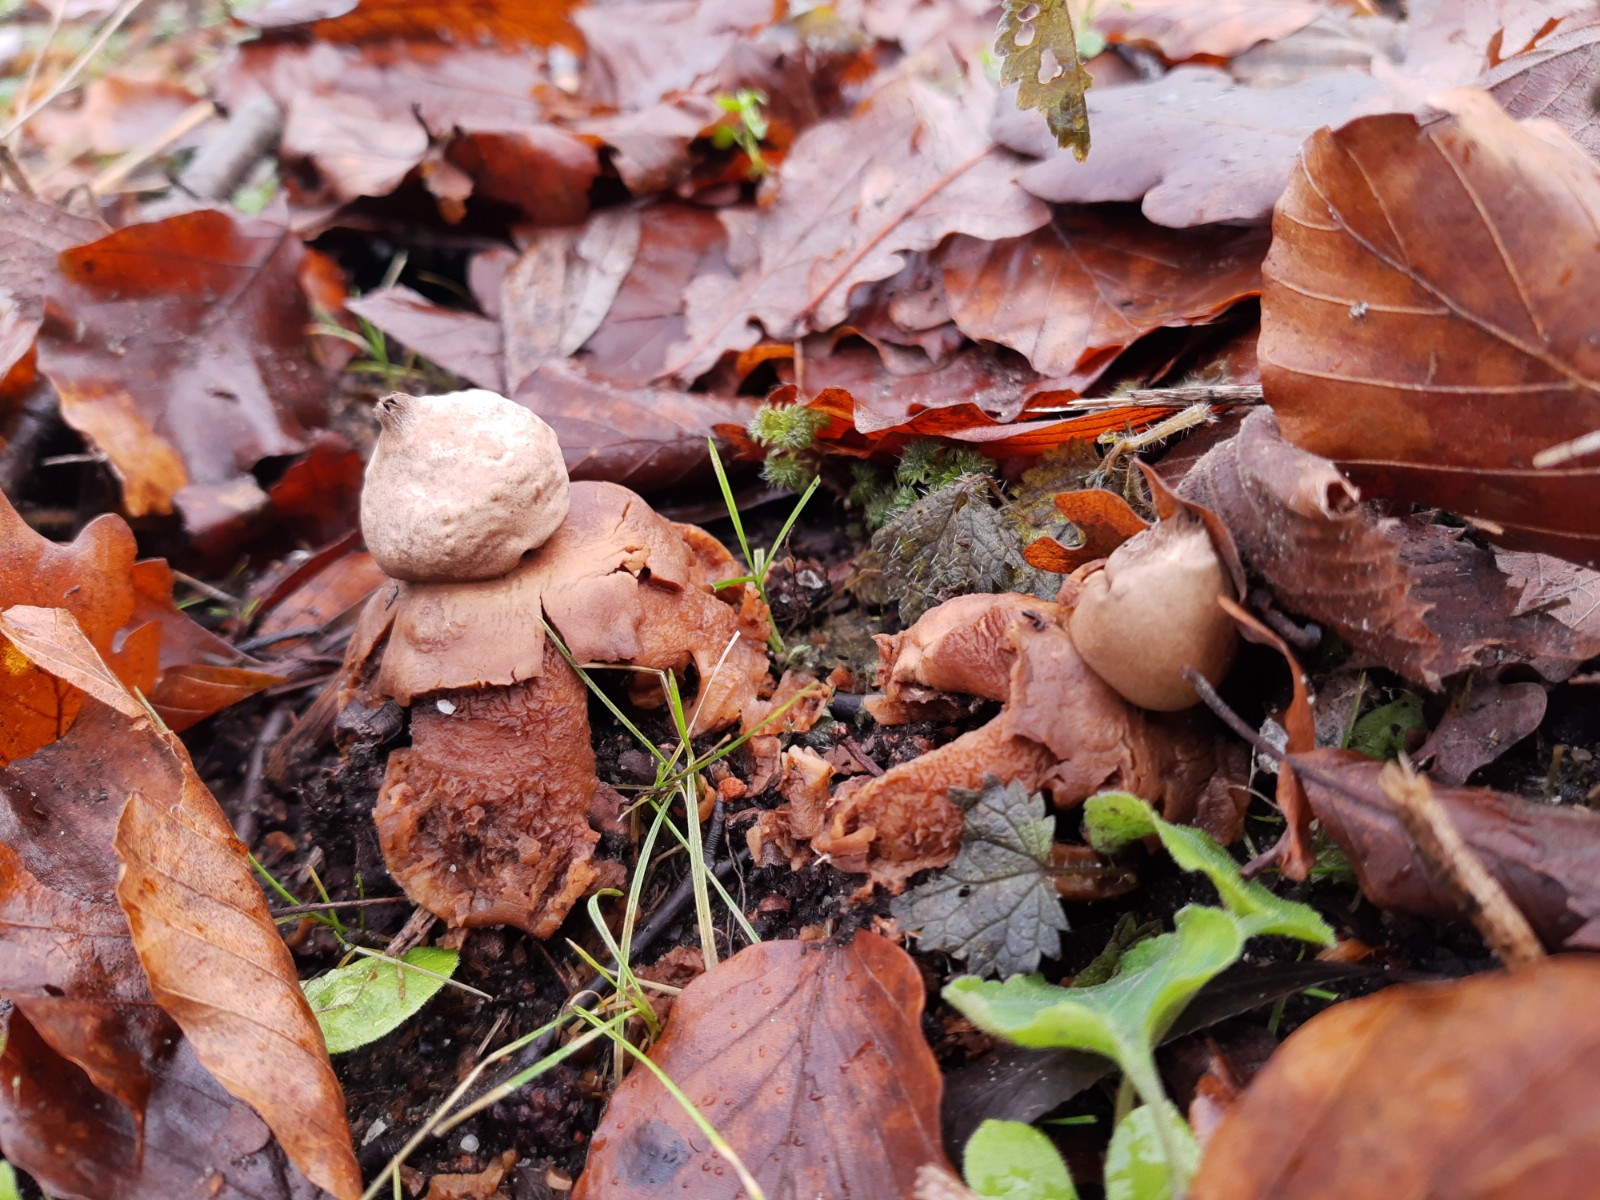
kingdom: Fungi
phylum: Basidiomycota
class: Agaricomycetes
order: Geastrales
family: Geastraceae
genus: Geastrum
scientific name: Geastrum michelianum
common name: kødet stjernebold
